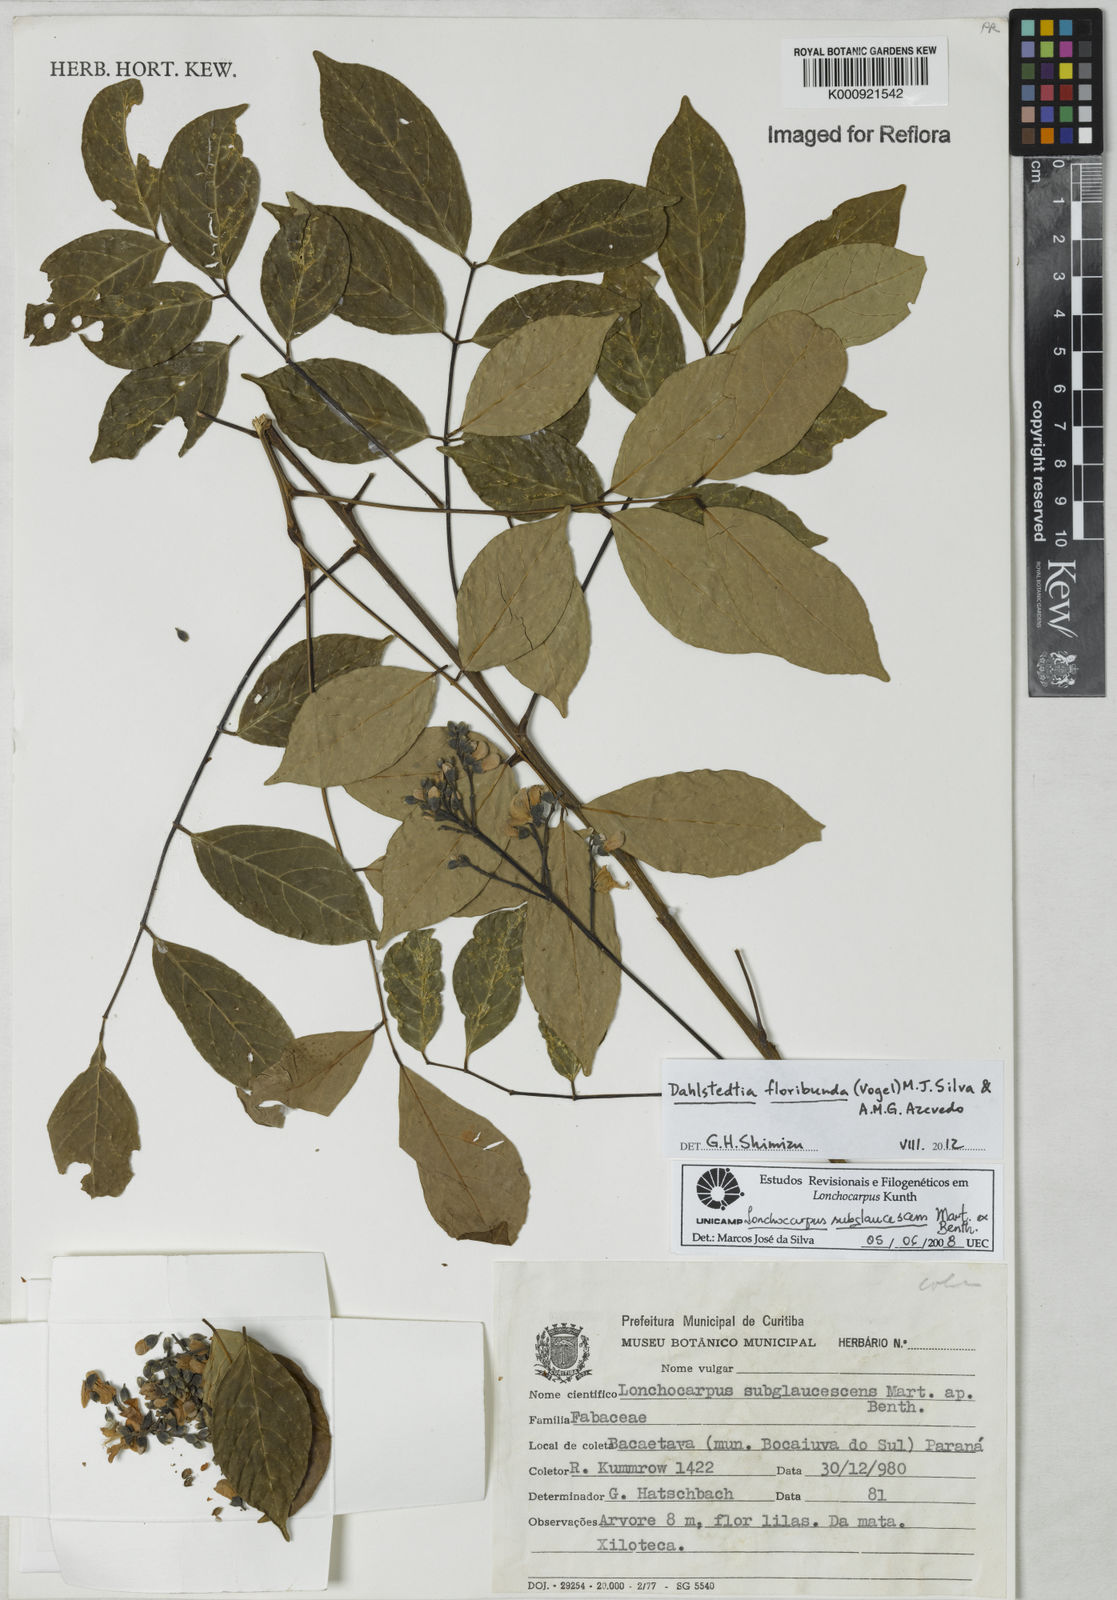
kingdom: Plantae
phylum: Tracheophyta
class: Magnoliopsida
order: Fabales
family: Fabaceae
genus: Dahlstedtia
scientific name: Dahlstedtia floribunda
